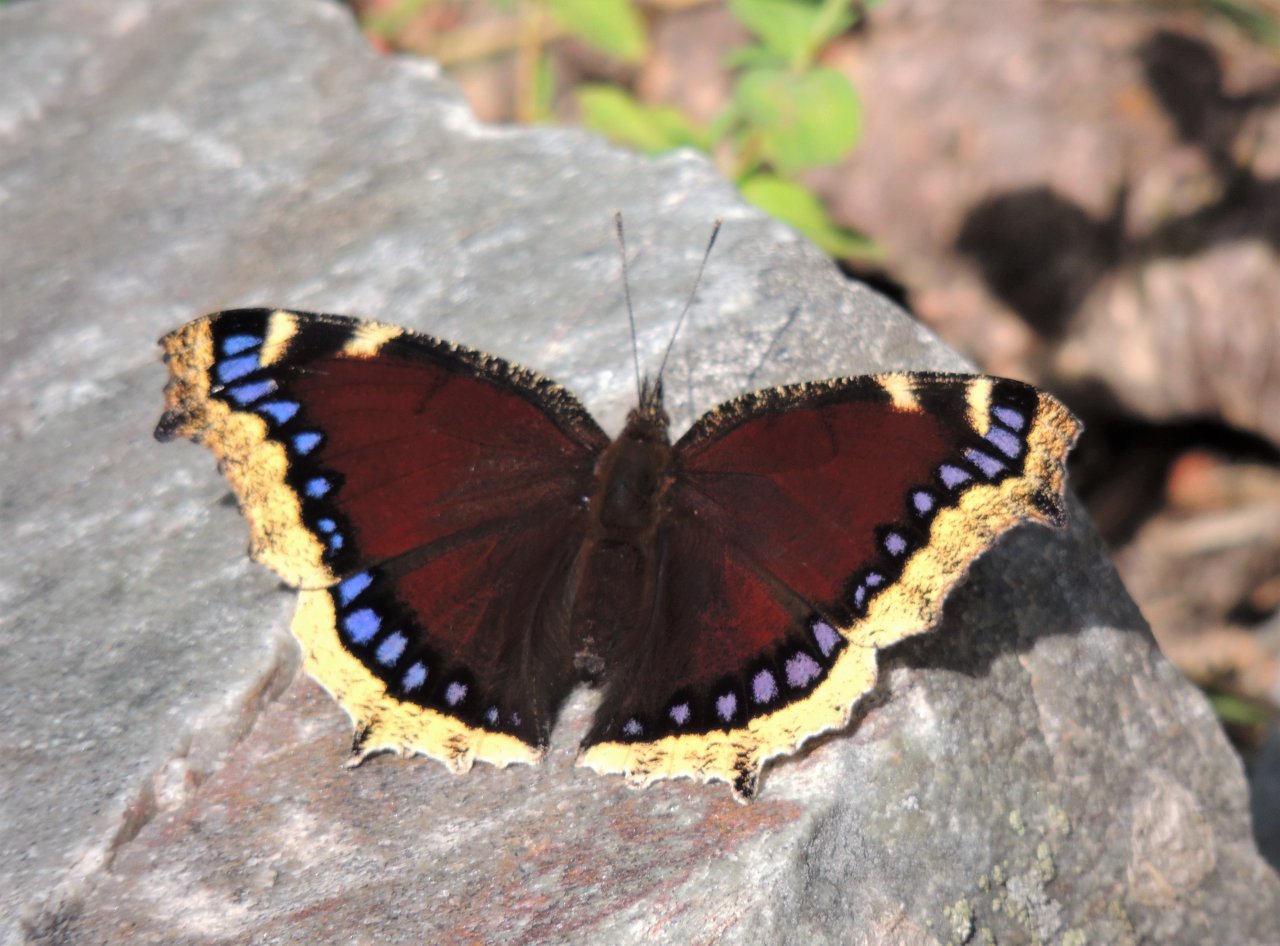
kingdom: Animalia
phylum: Arthropoda
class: Insecta
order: Lepidoptera
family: Nymphalidae
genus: Nymphalis
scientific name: Nymphalis antiopa
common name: Mourning Cloak
